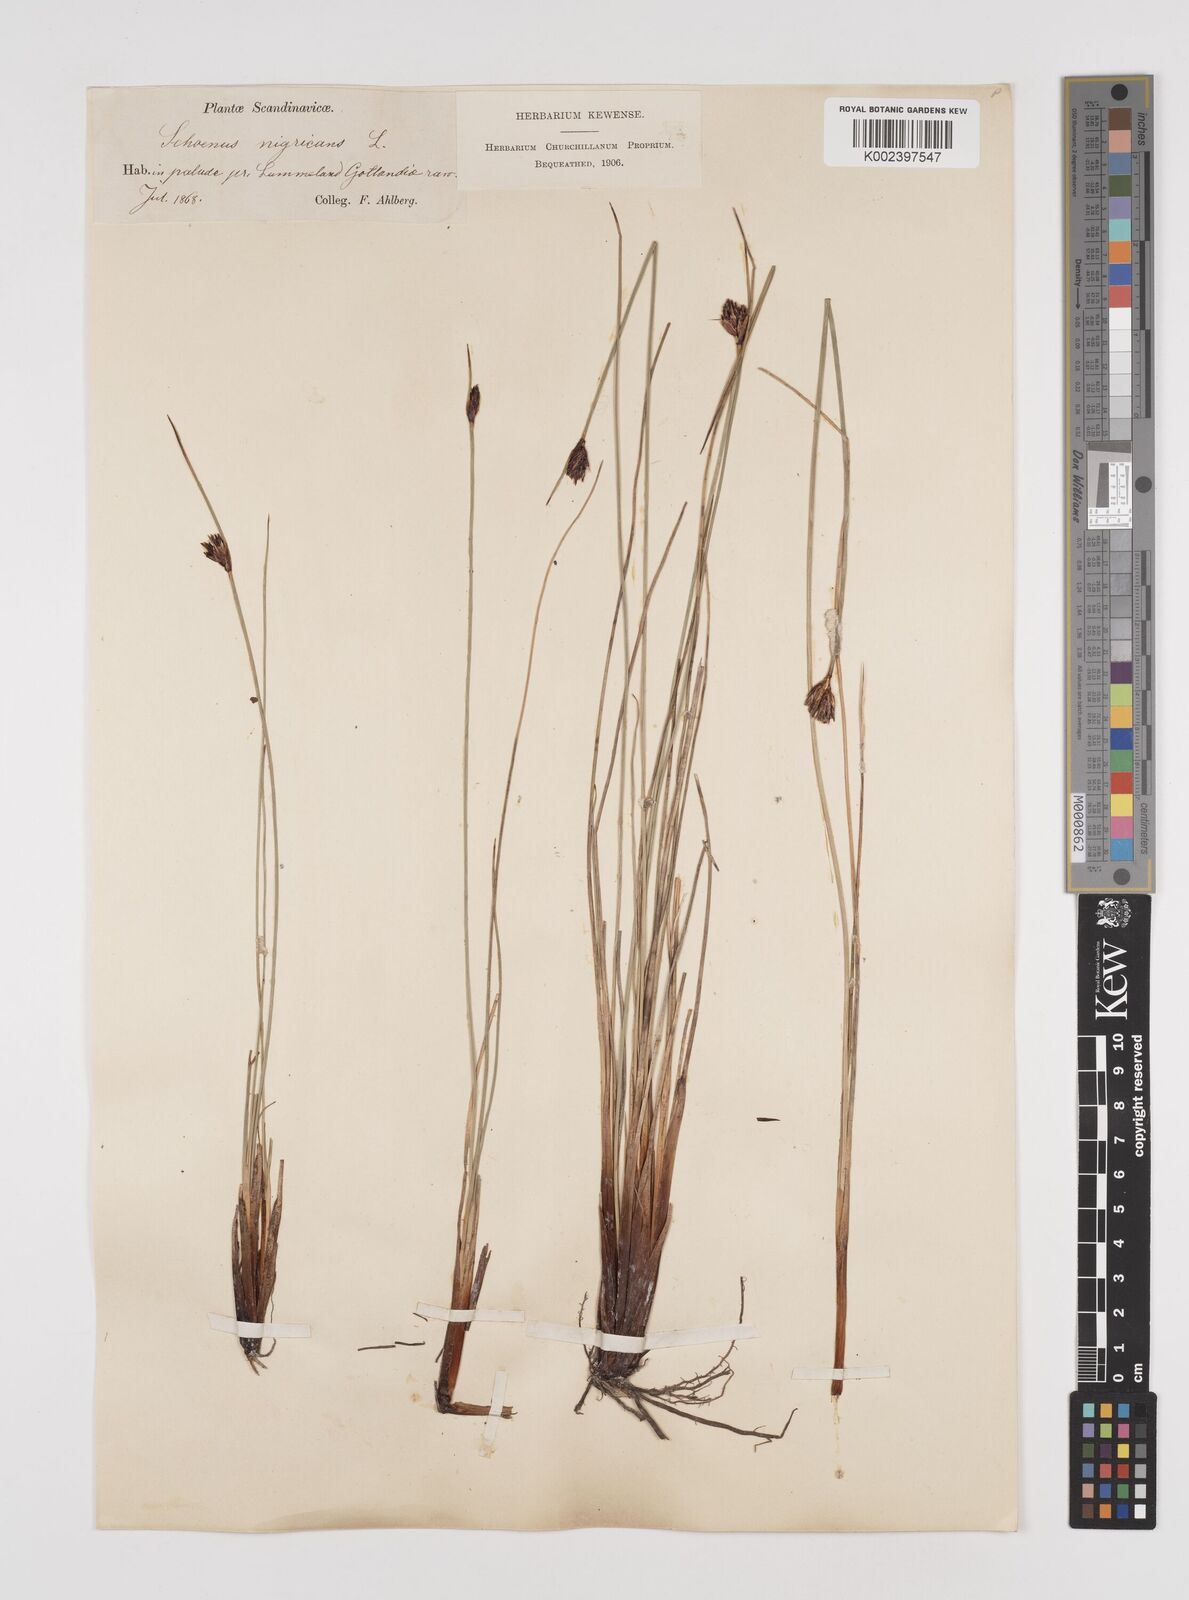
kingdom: Plantae
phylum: Tracheophyta
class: Liliopsida
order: Poales
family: Cyperaceae
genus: Schoenus
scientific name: Schoenus nigricans
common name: Black bog-rush
